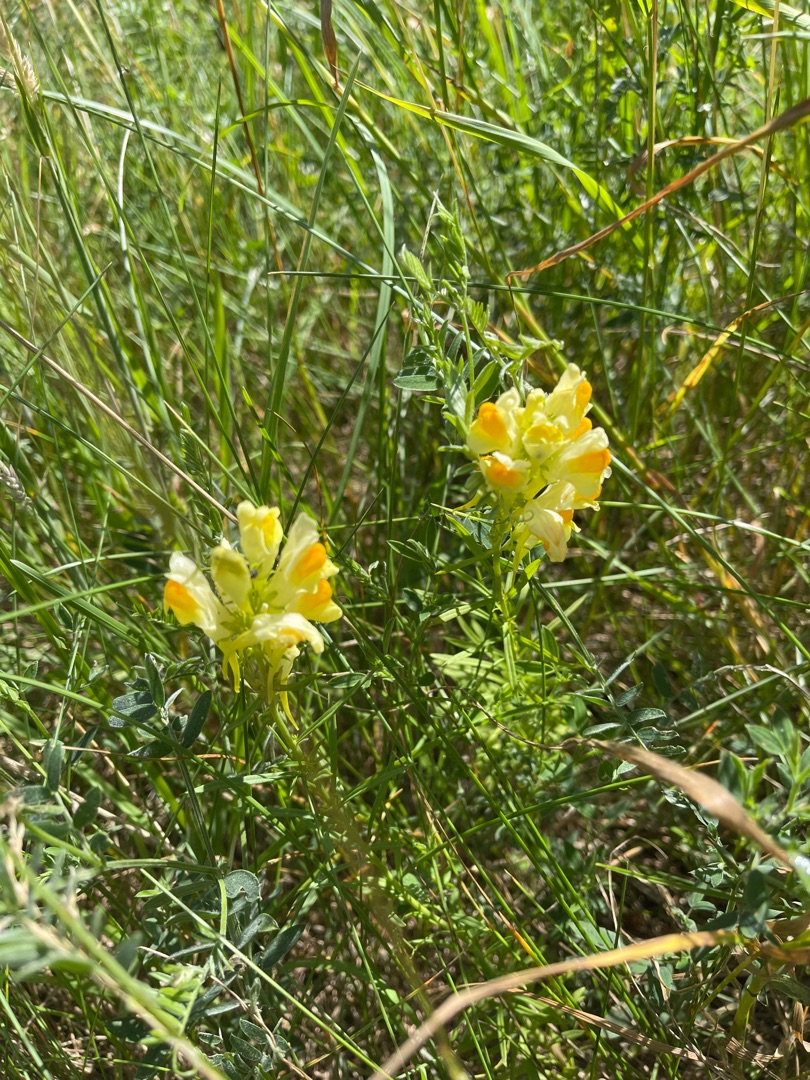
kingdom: Plantae
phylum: Tracheophyta
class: Magnoliopsida
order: Lamiales
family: Plantaginaceae
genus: Linaria
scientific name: Linaria vulgaris
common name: Almindelig torskemund
